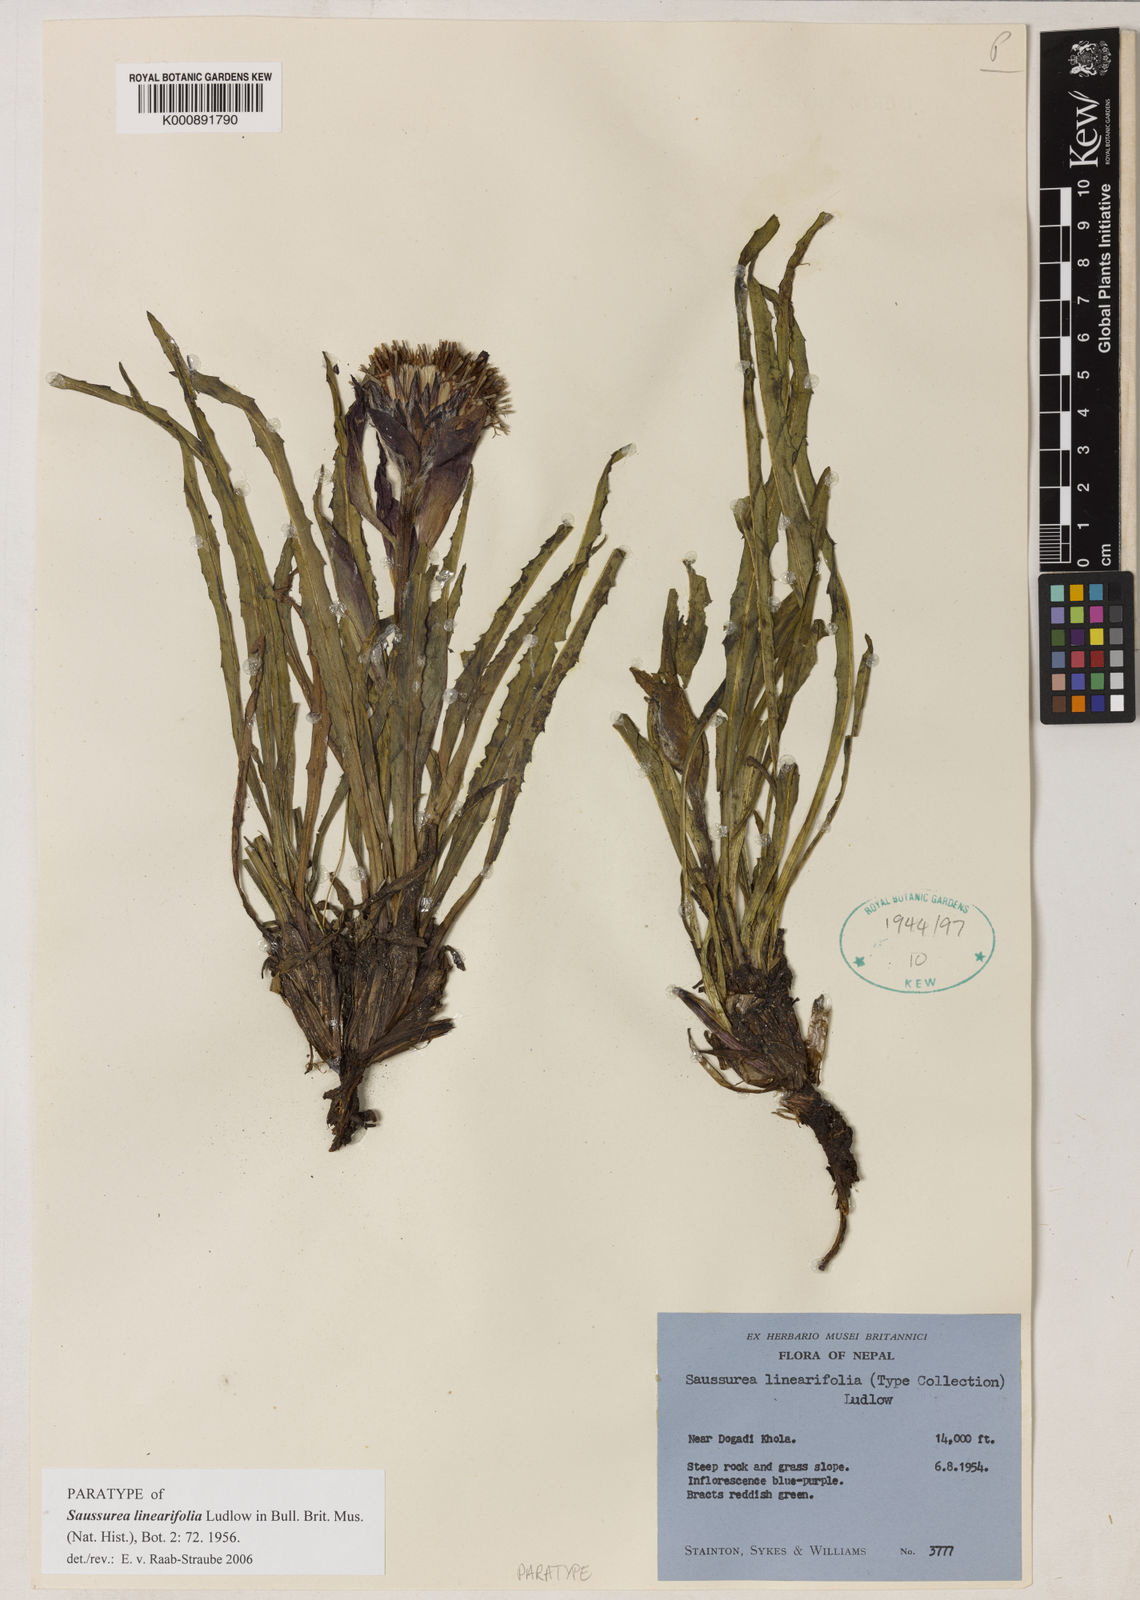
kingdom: Plantae
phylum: Tracheophyta
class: Magnoliopsida
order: Asterales
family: Asteraceae
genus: Saussurea
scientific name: Saussurea linearifolia
